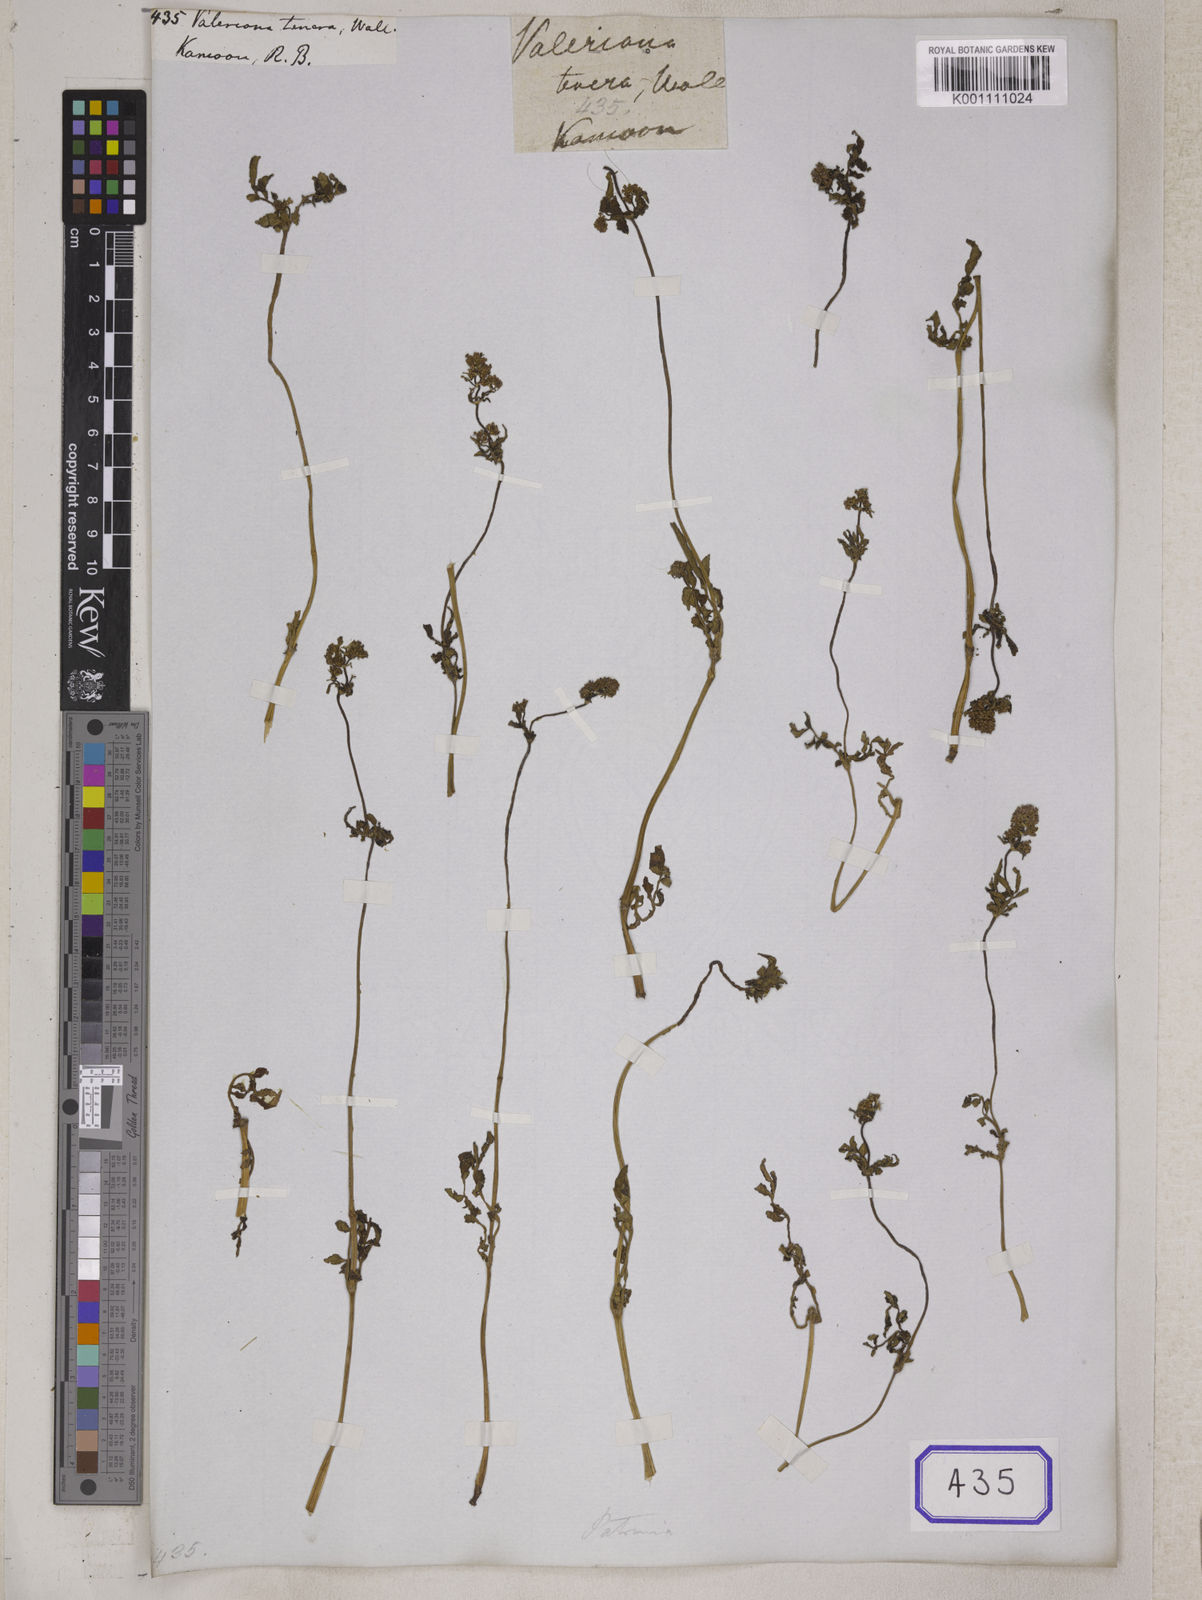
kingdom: Plantae
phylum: Tracheophyta
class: Magnoliopsida
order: Dipsacales
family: Caprifoliaceae
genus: Valeriana
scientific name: Valeriana
